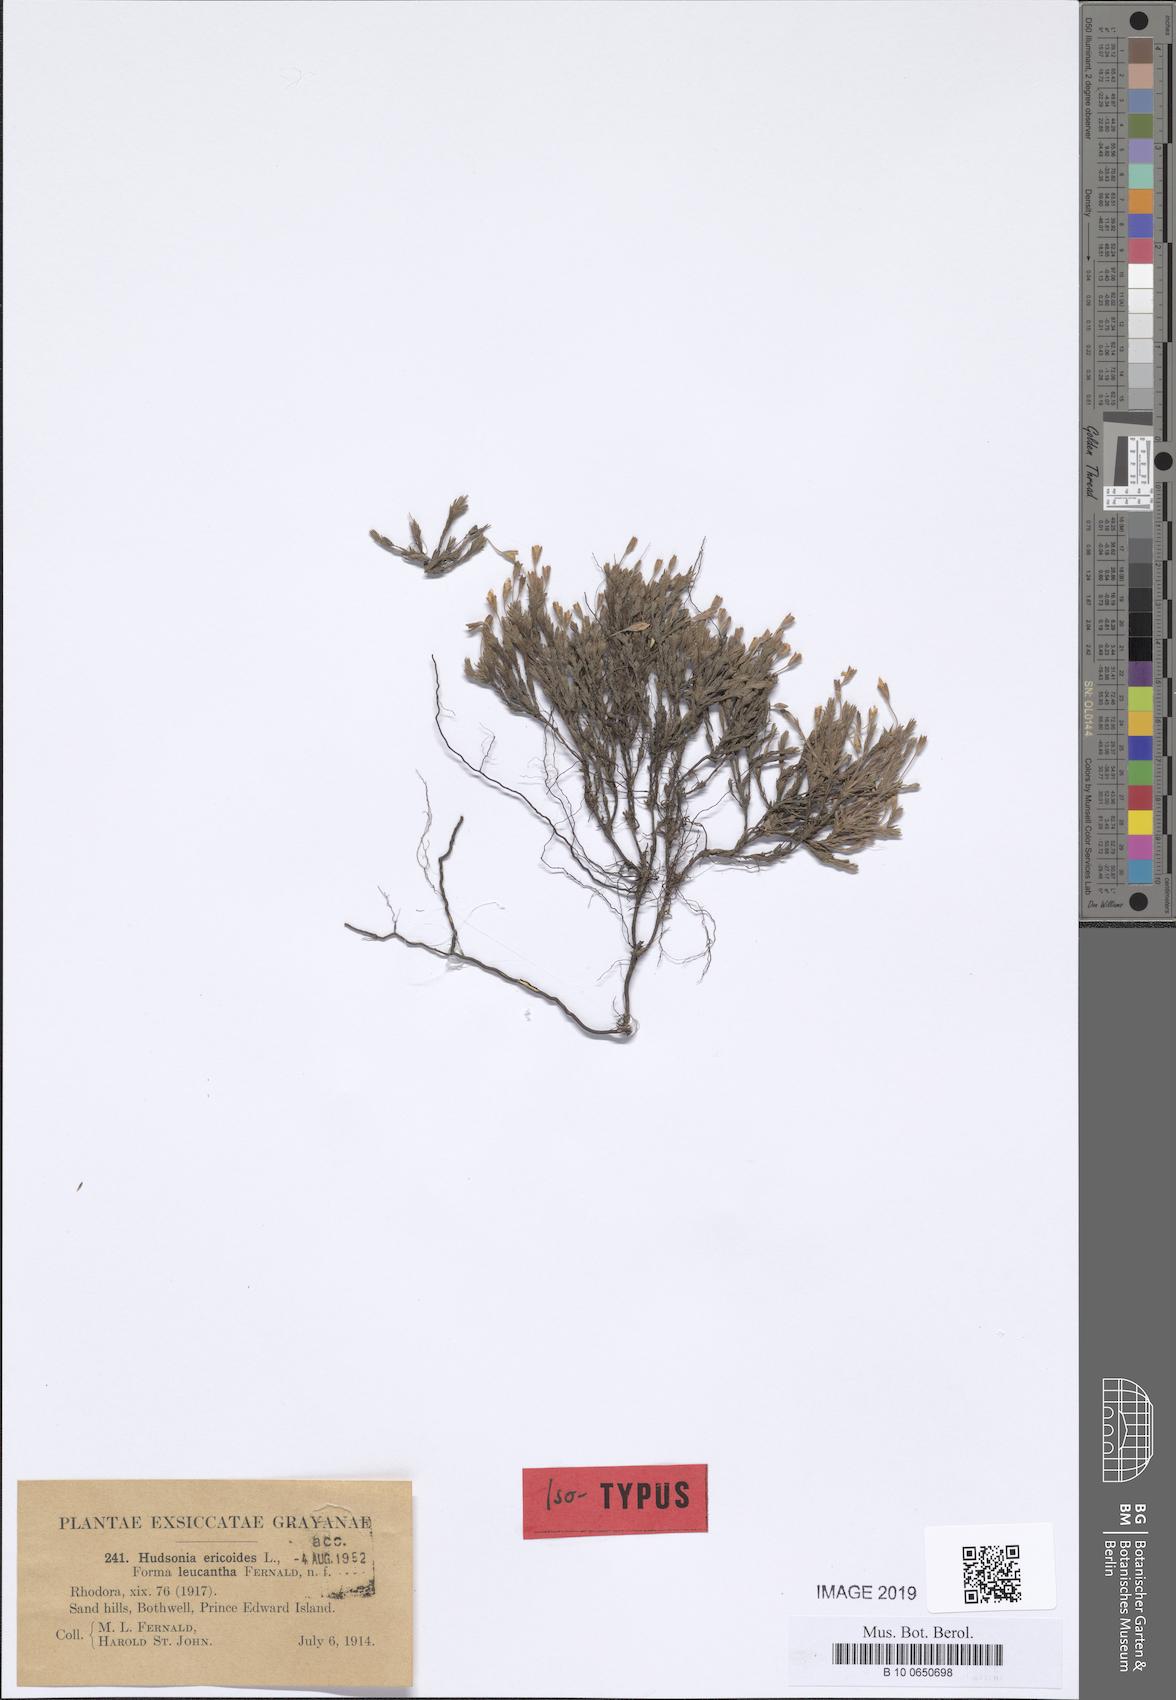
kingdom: Plantae
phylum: Tracheophyta
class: Magnoliopsida
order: Malvales
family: Cistaceae
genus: Hudsonia
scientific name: Hudsonia ericoides
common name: Golden-heather
